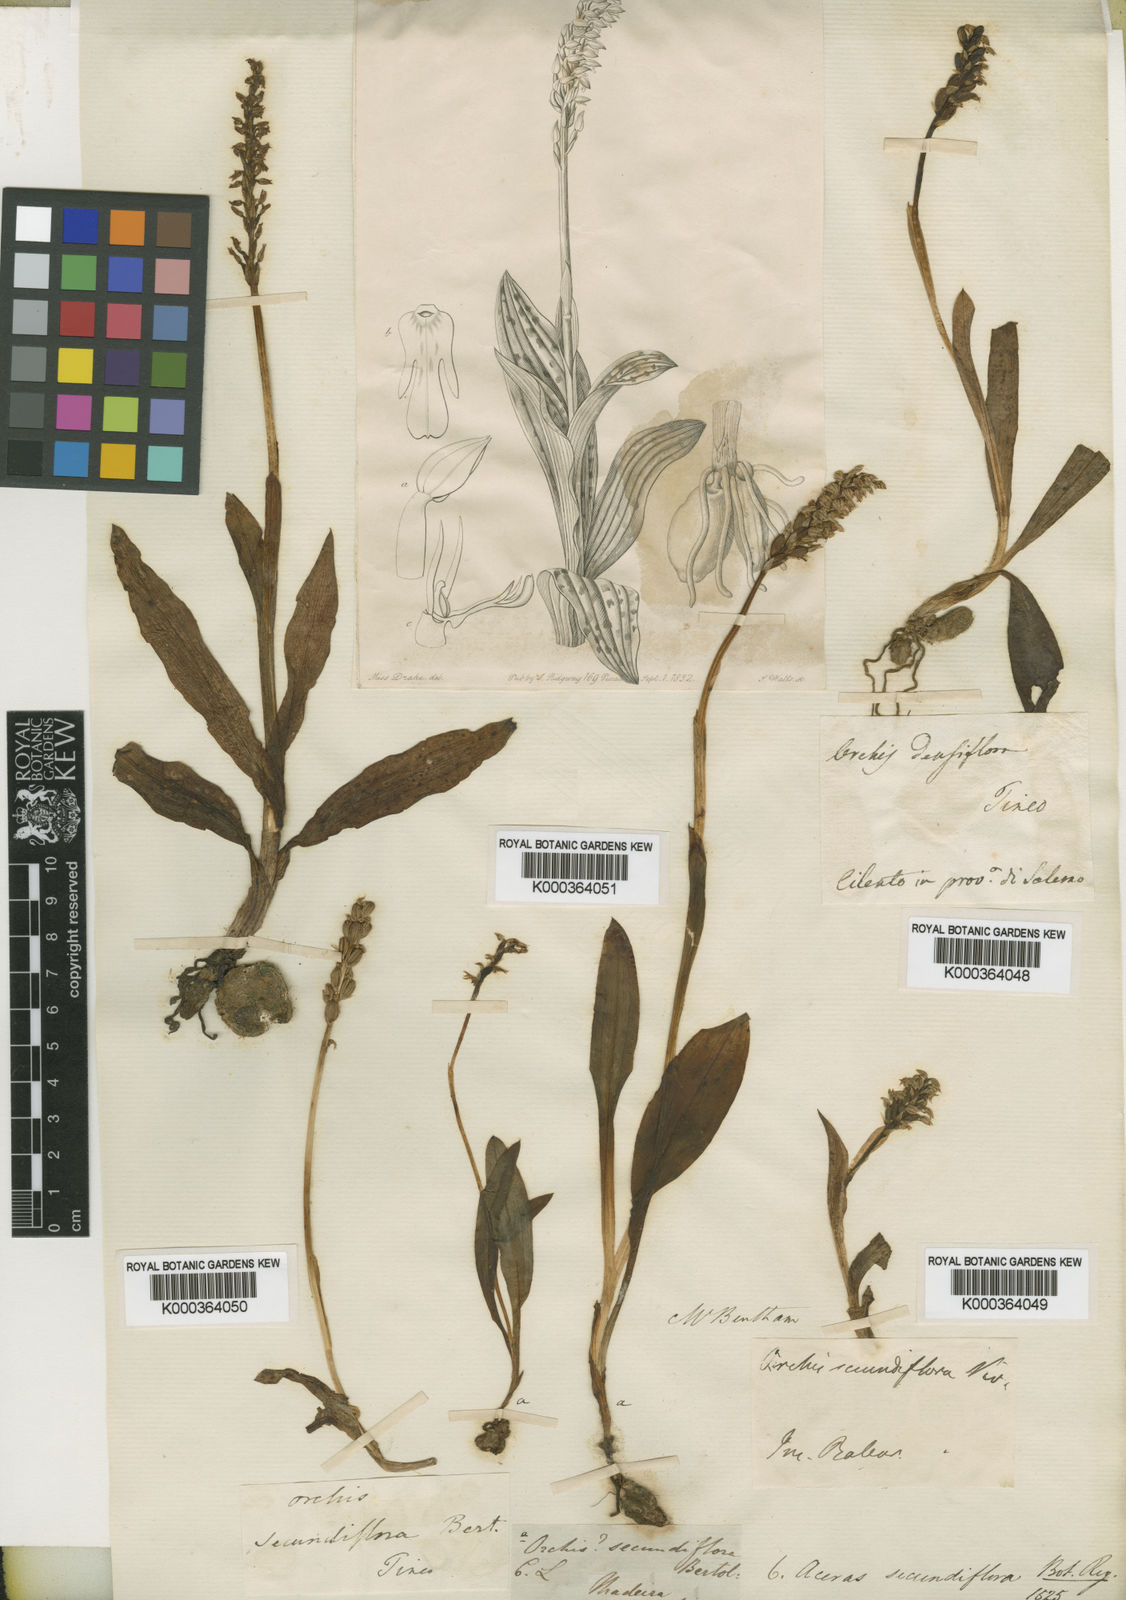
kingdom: Plantae
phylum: Tracheophyta
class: Liliopsida
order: Asparagales
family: Orchidaceae
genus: Neotinea
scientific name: Neotinea maculata
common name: Dense-flowered orchid
